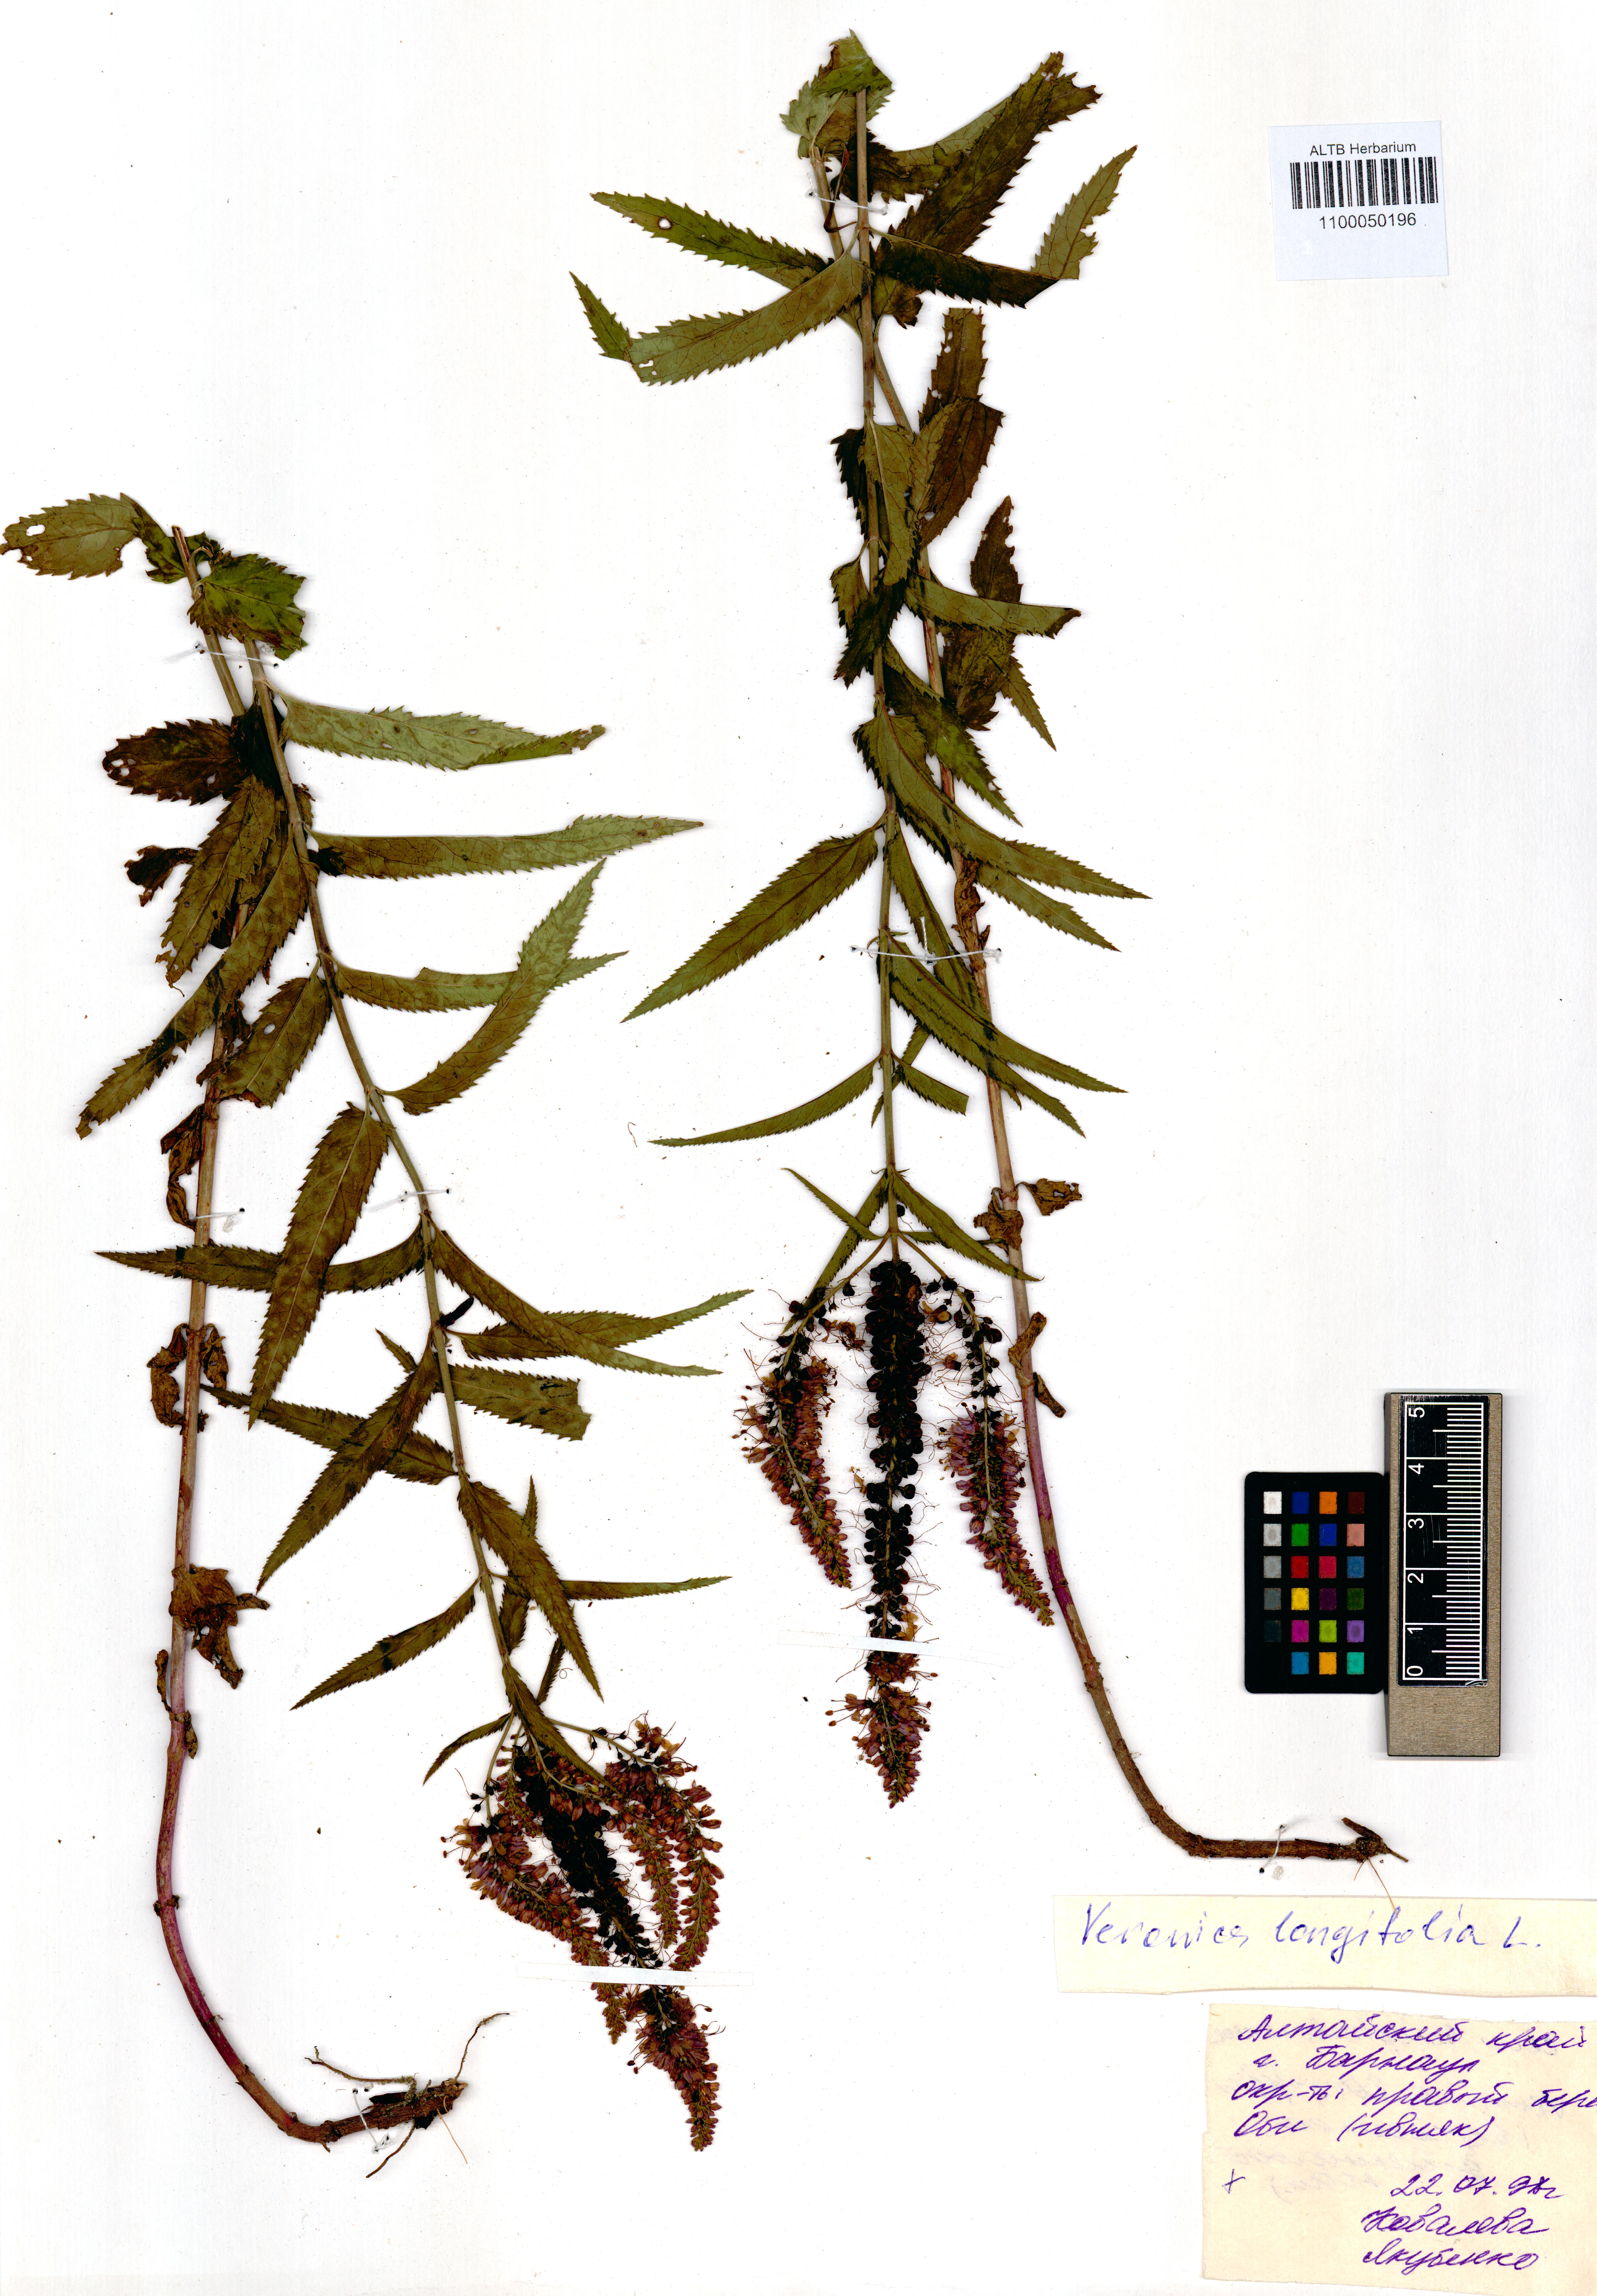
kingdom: Plantae
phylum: Tracheophyta
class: Magnoliopsida
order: Lamiales
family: Plantaginaceae
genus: Veronica
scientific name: Veronica longifolia
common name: Garden speedwell
